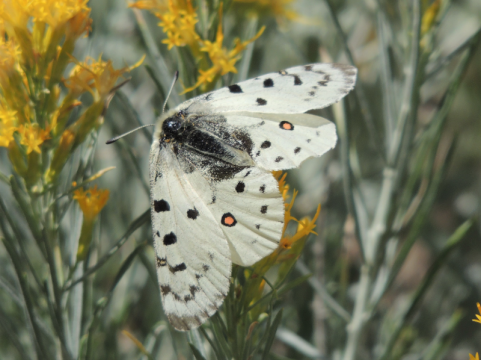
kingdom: Animalia
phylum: Arthropoda
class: Insecta
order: Lepidoptera
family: Papilionidae
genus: Parnassius
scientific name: Parnassius smintheus
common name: Rocky Mountain Parnassian
